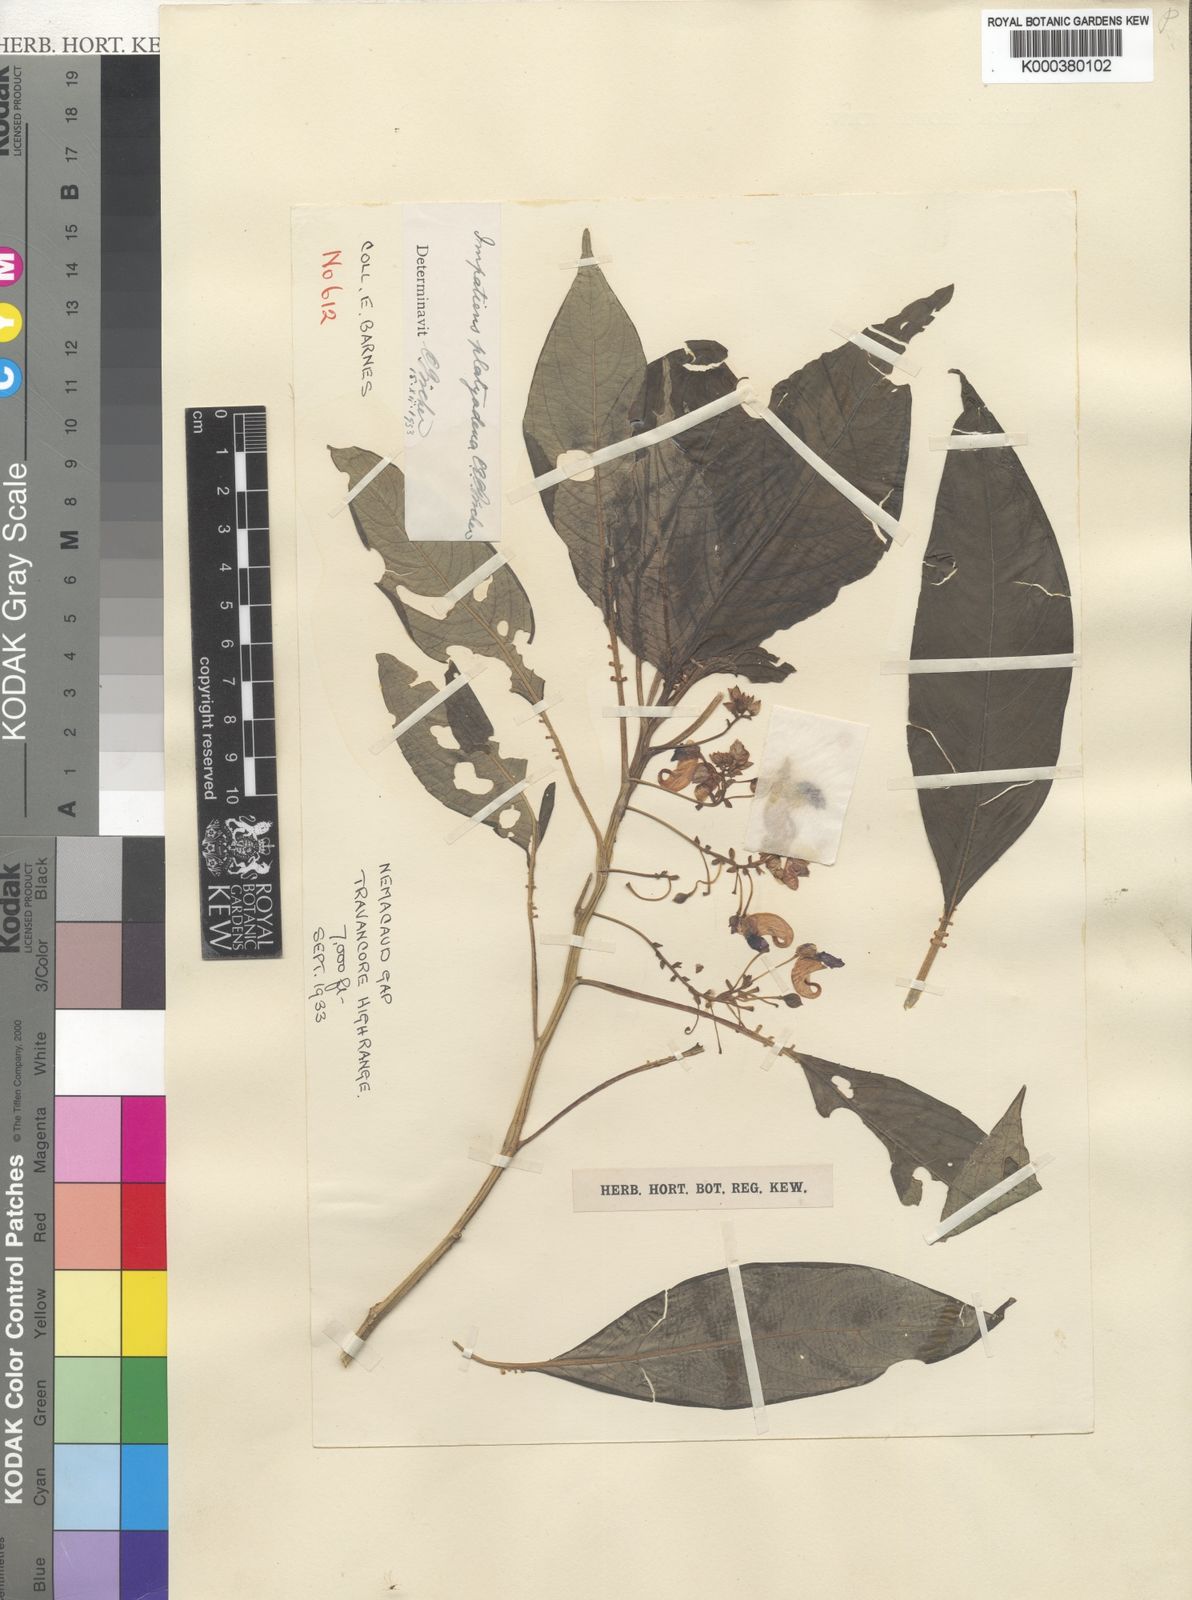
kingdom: Plantae
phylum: Tracheophyta
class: Magnoliopsida
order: Ericales
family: Balsaminaceae
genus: Impatiens
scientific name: Impatiens platyadena
